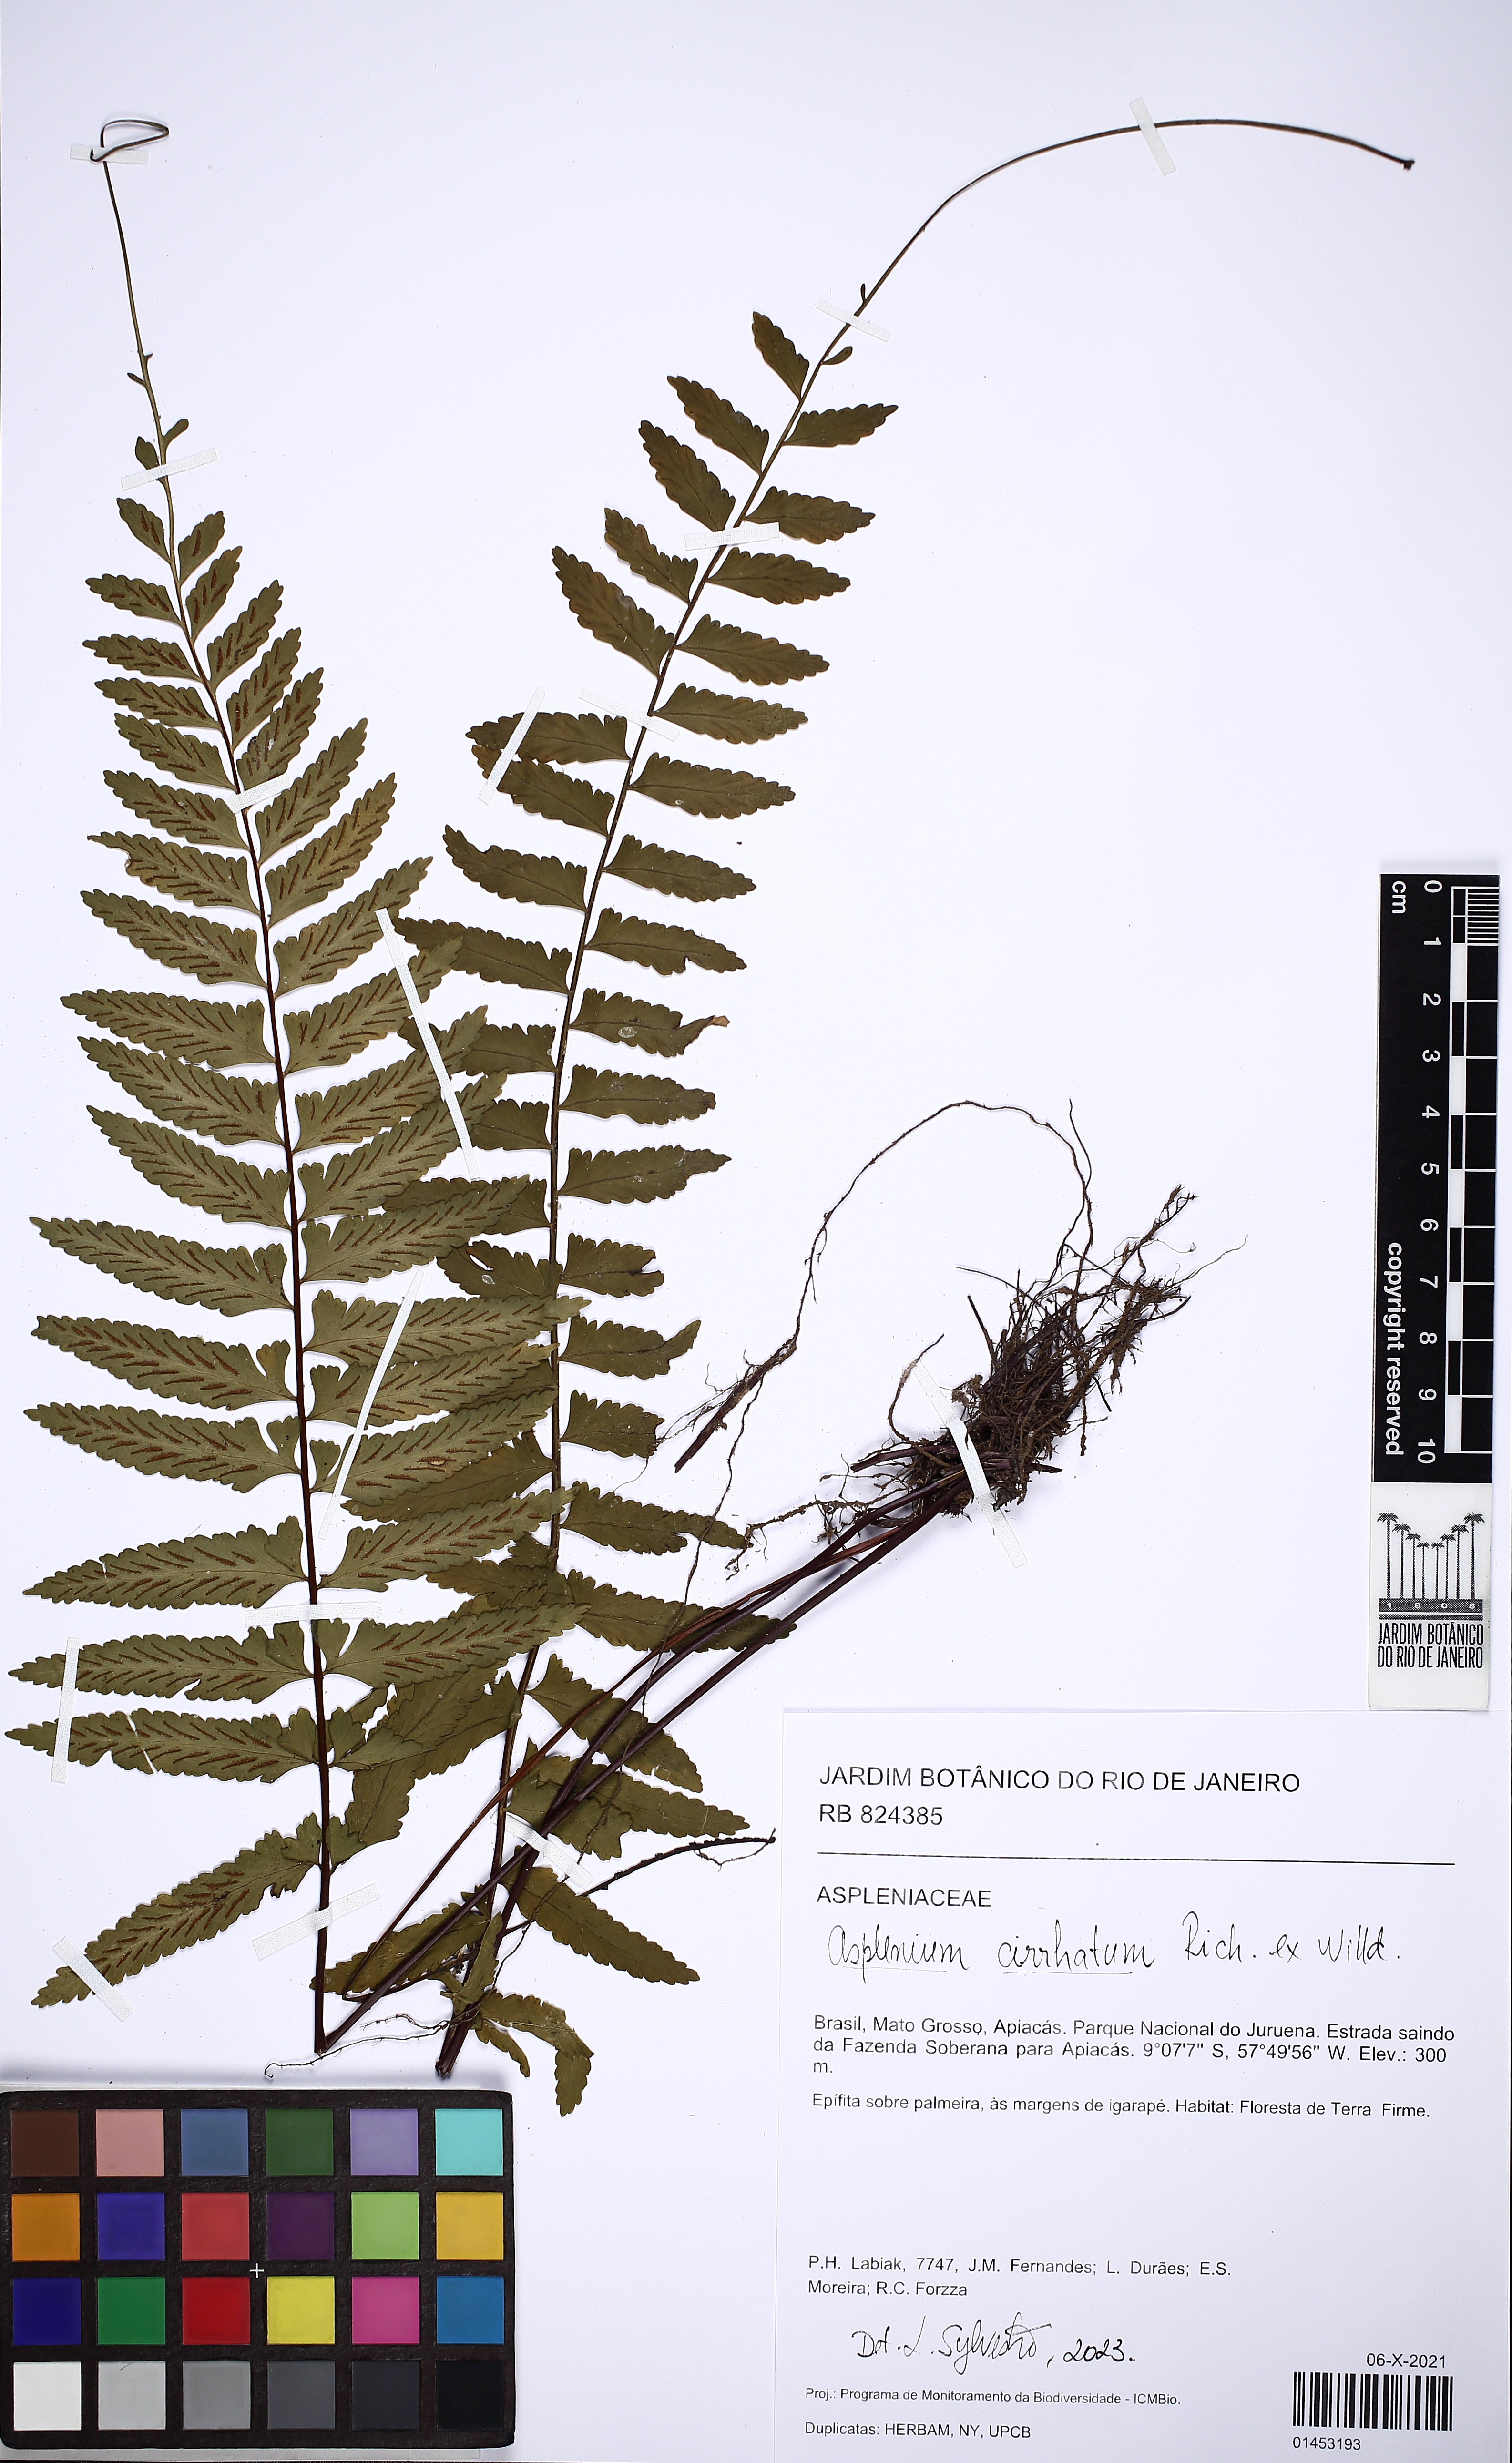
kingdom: Plantae
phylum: Tracheophyta
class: Polypodiopsida
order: Polypodiales
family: Aspleniaceae
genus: Asplenium
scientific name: Asplenium cirrhatum
